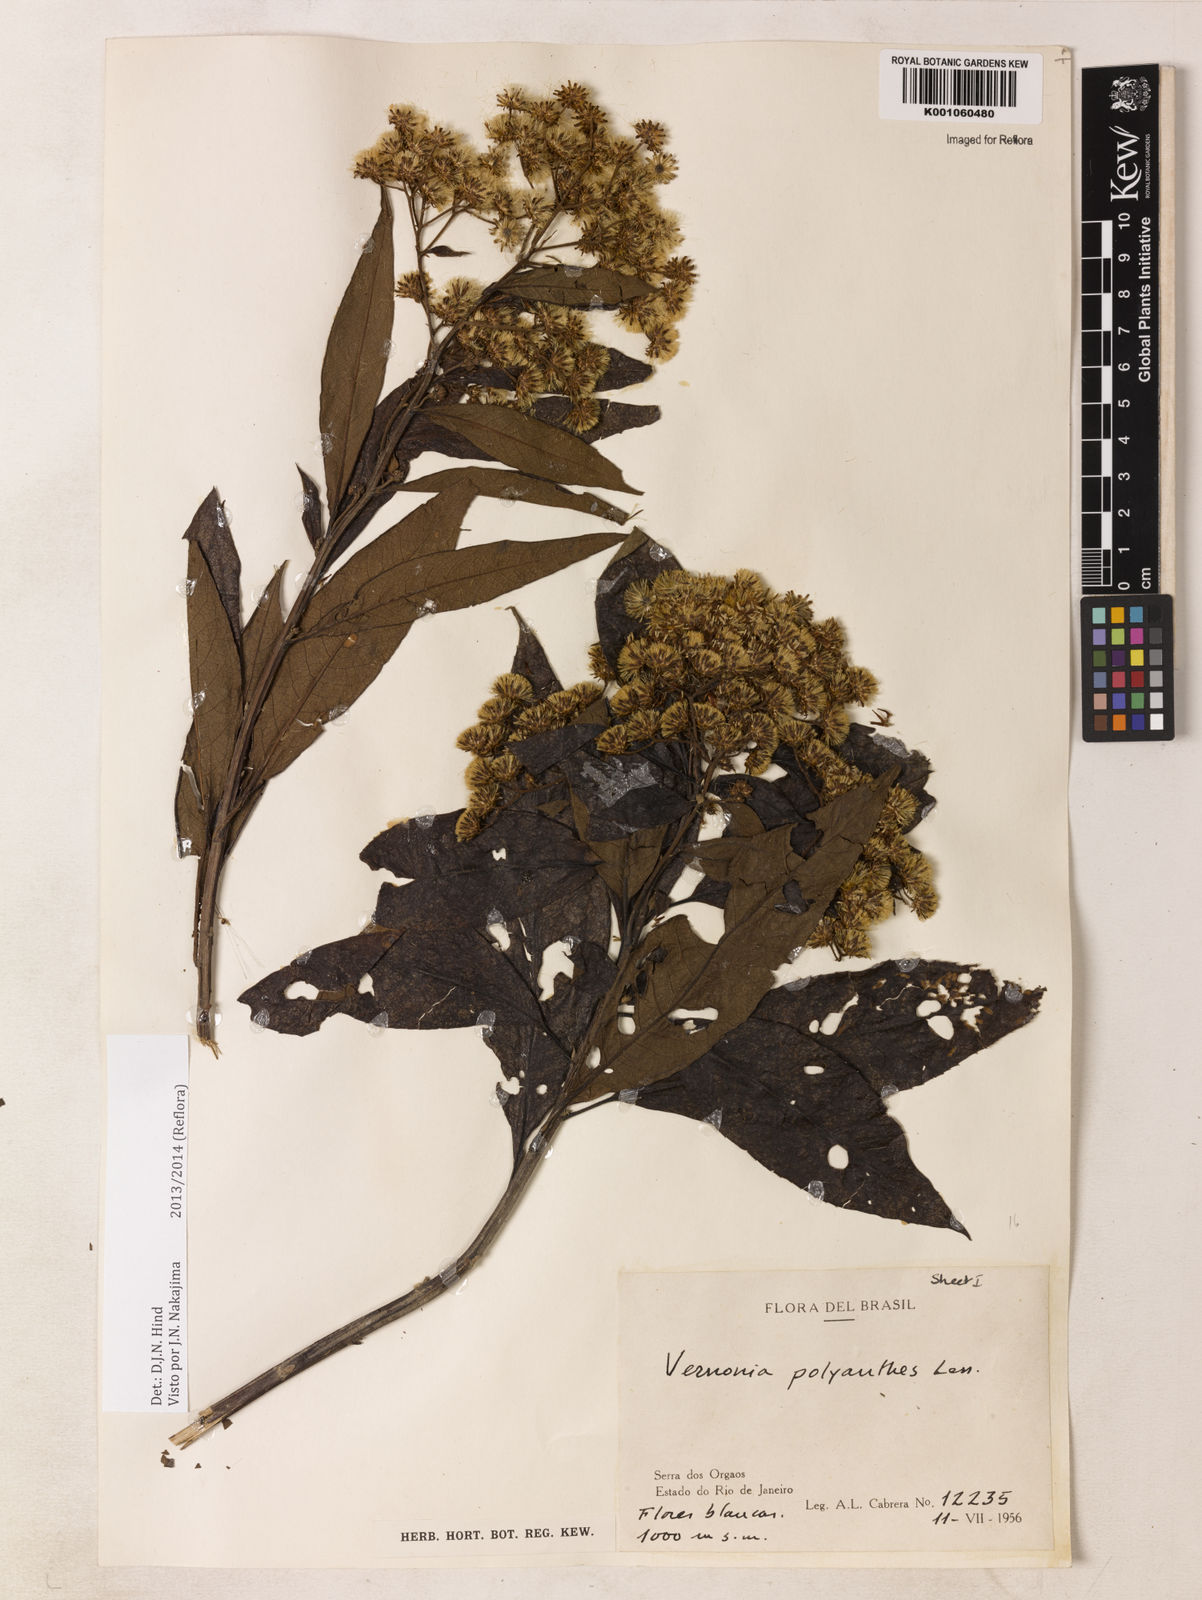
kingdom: Plantae
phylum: Tracheophyta
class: Magnoliopsida
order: Asterales
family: Asteraceae
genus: Vernonanthura
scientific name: Vernonanthura petiolaris
